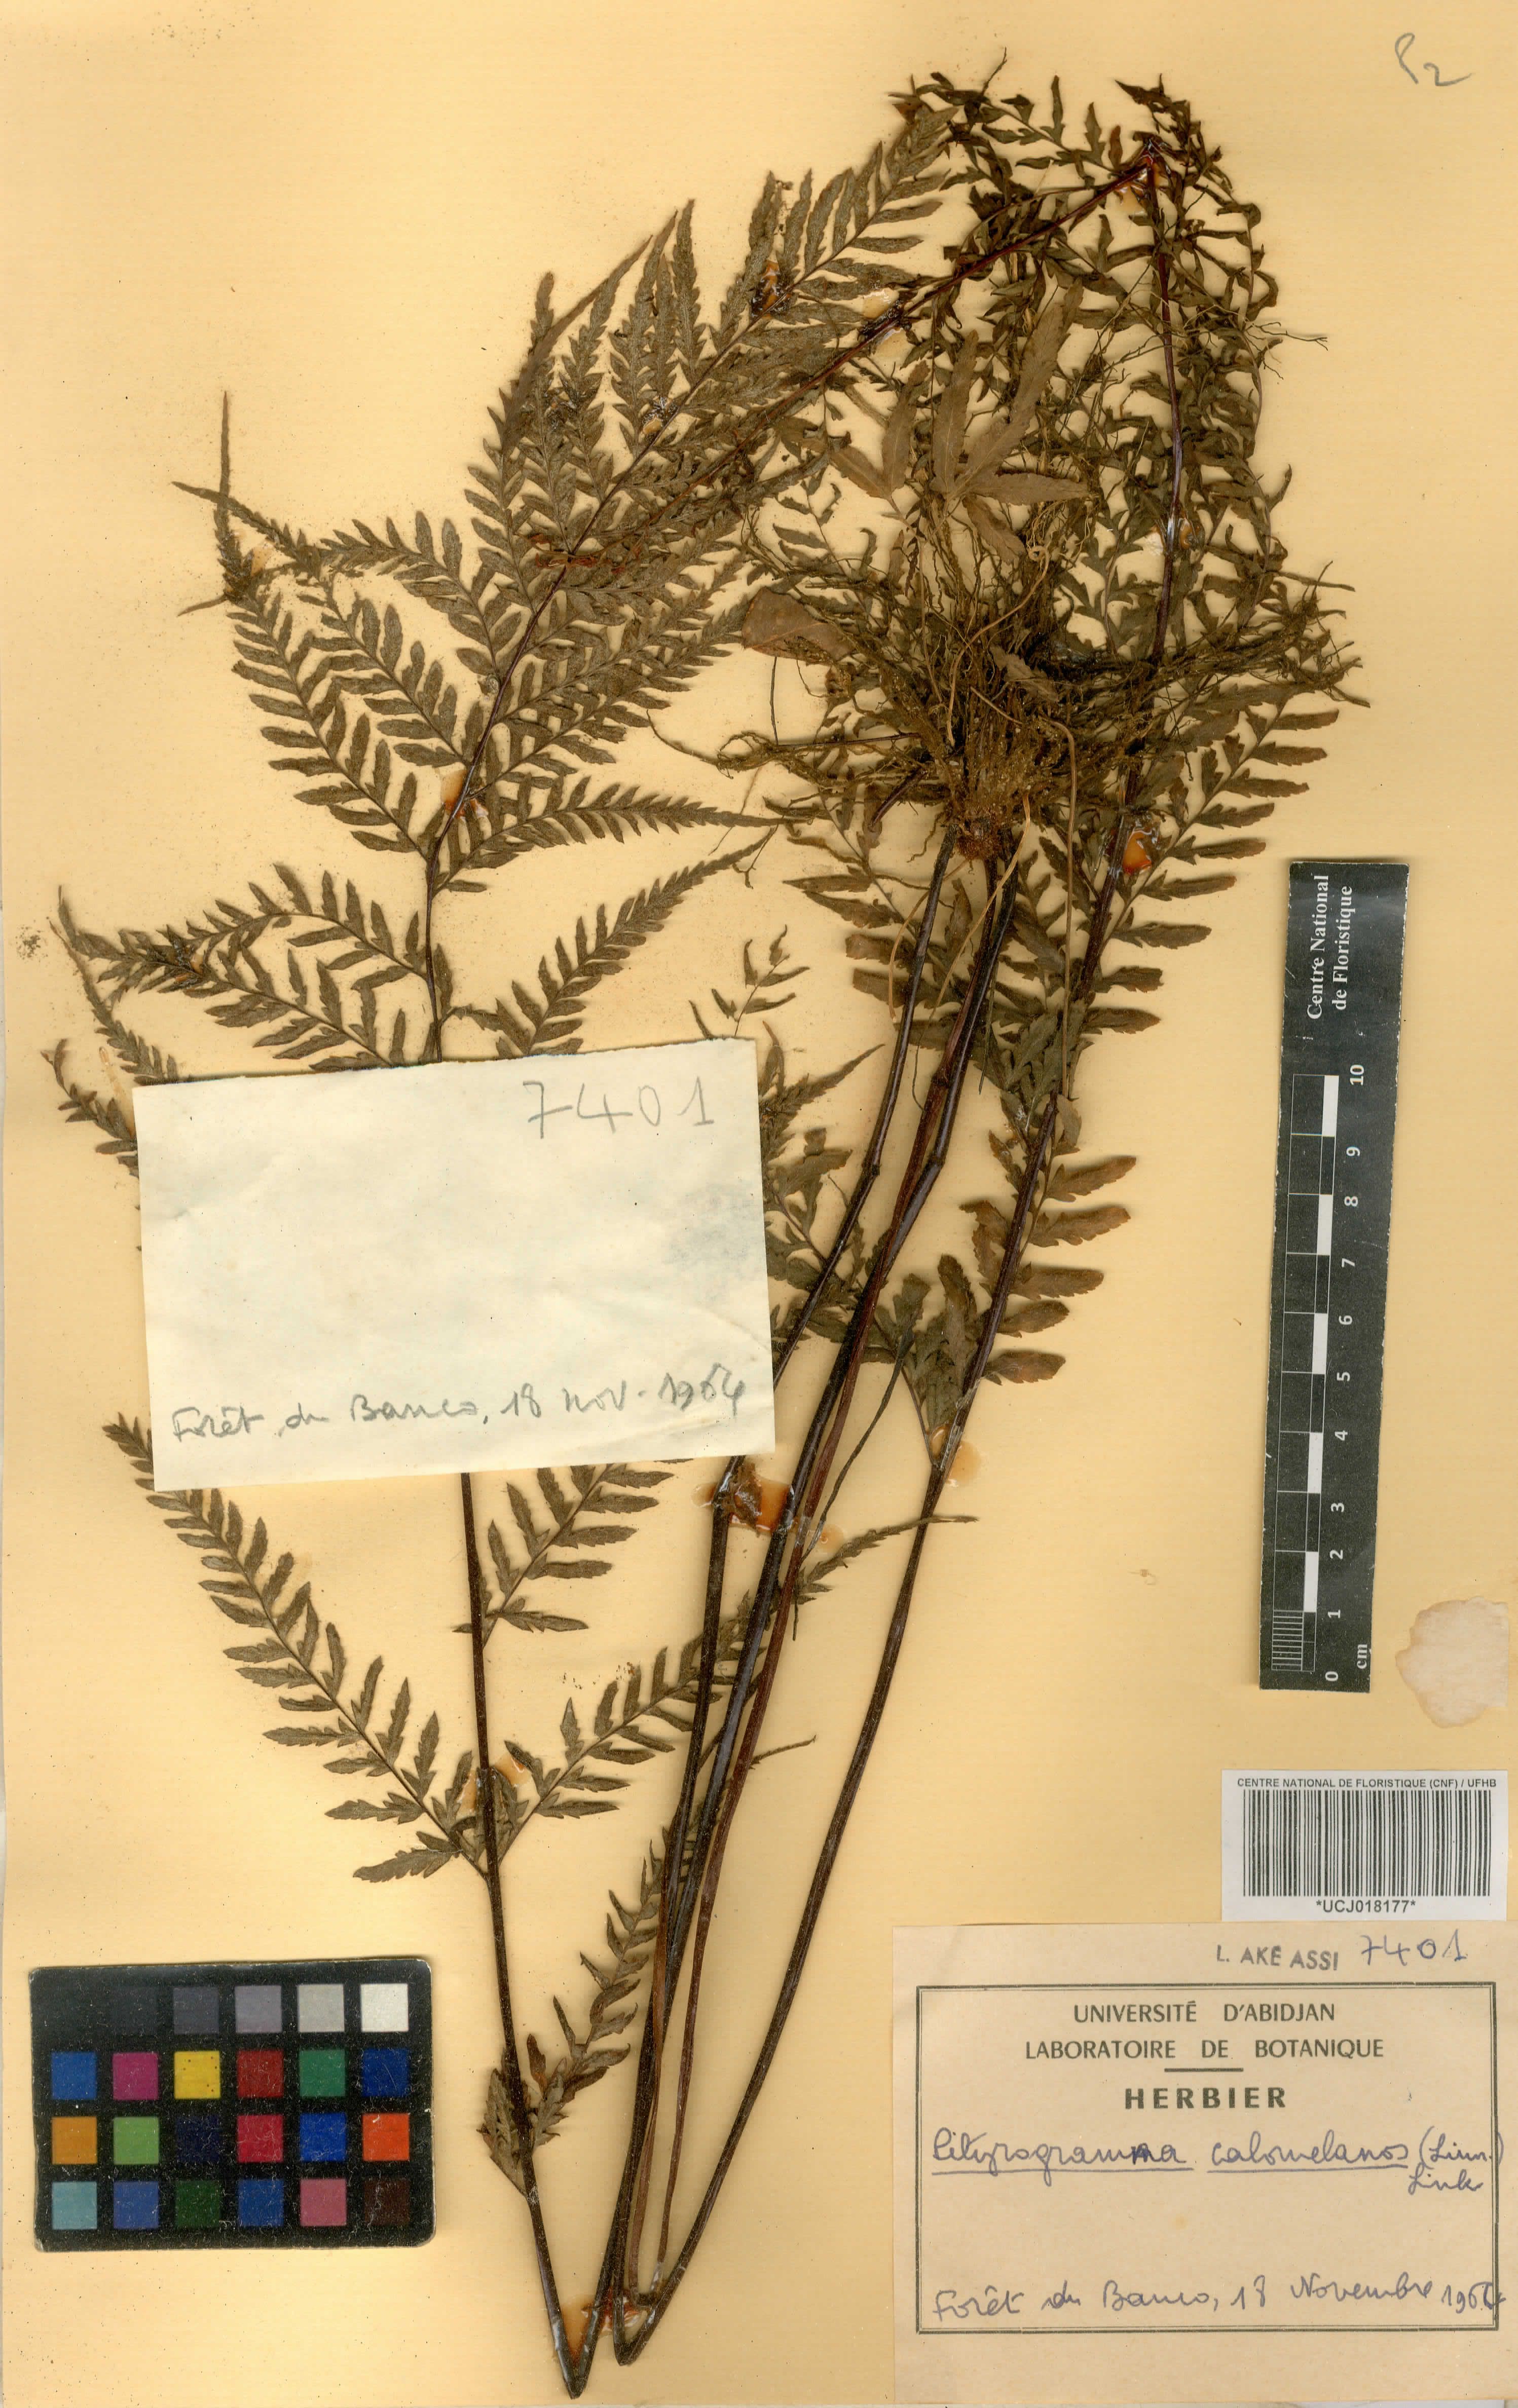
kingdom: Plantae
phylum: Tracheophyta
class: Polypodiopsida
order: Polypodiales
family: Pteridaceae
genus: Pityrogramma
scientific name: Pityrogramma calomelanos
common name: Dixie silverback fern
